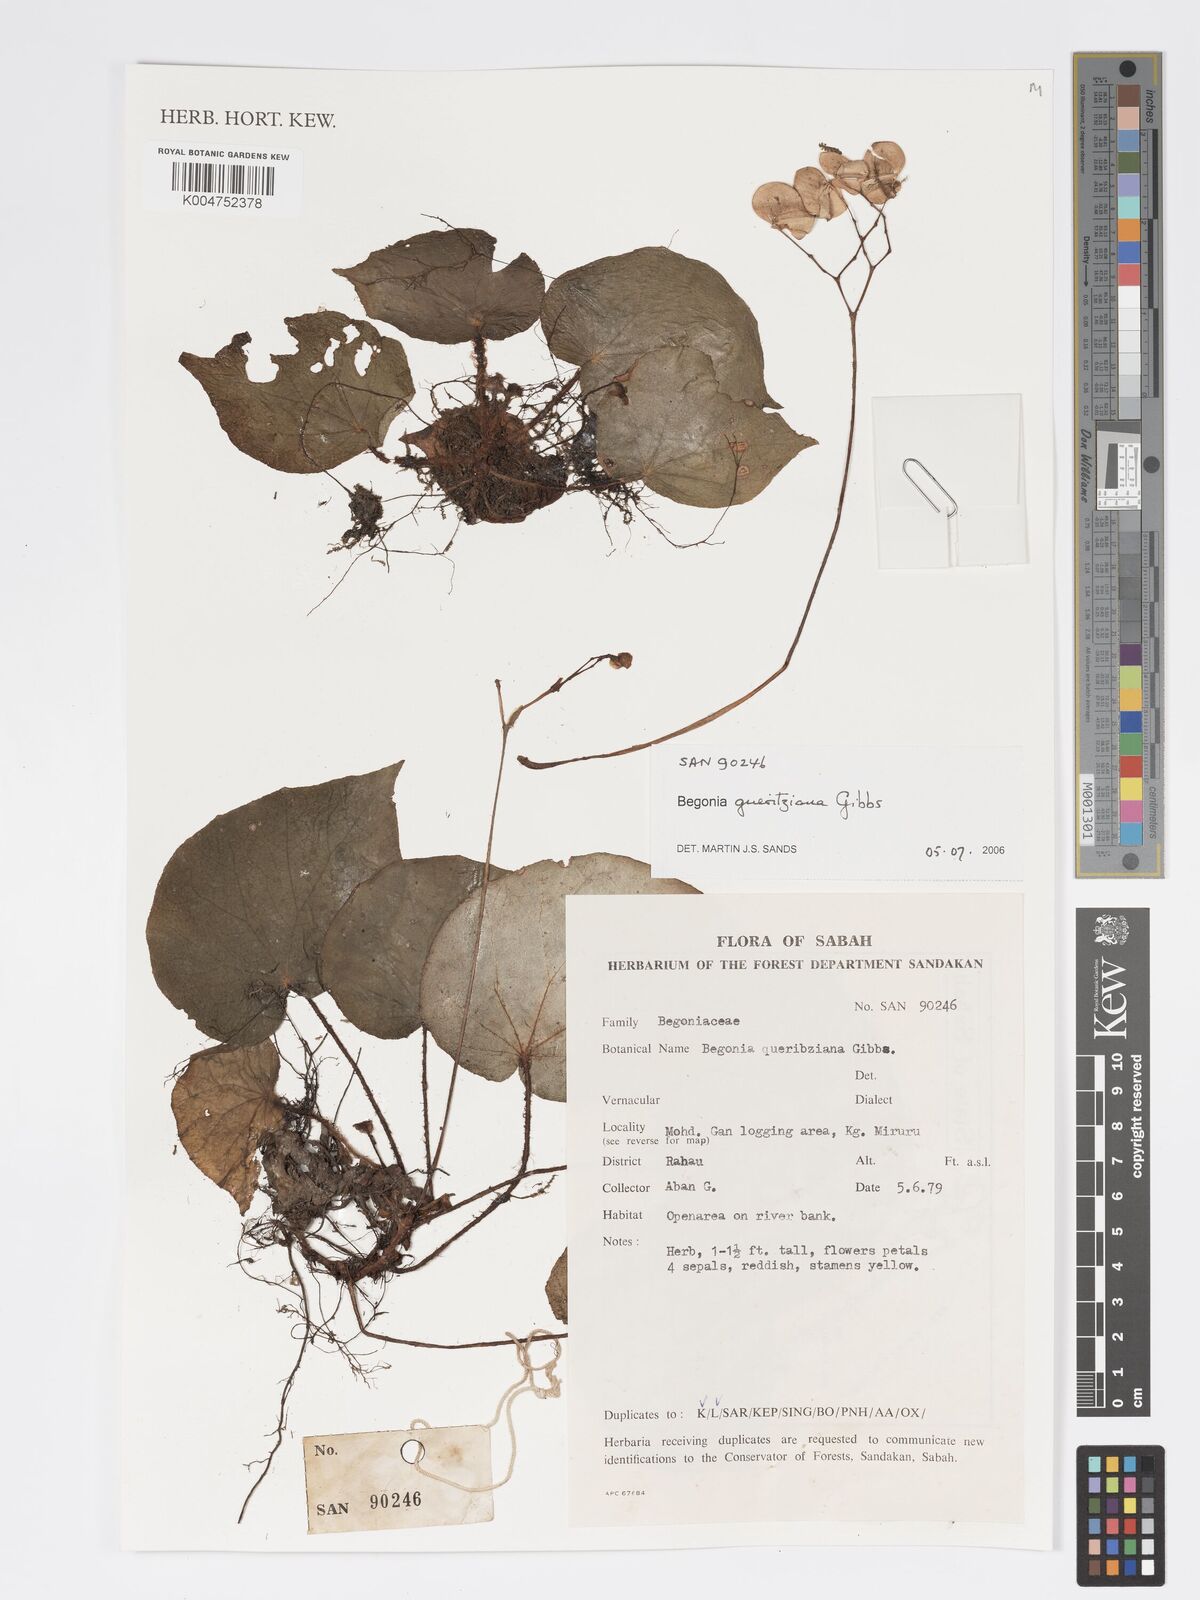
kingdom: Plantae
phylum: Tracheophyta
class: Magnoliopsida
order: Cucurbitales
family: Begoniaceae
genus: Begonia
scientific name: Begonia gueritziana
